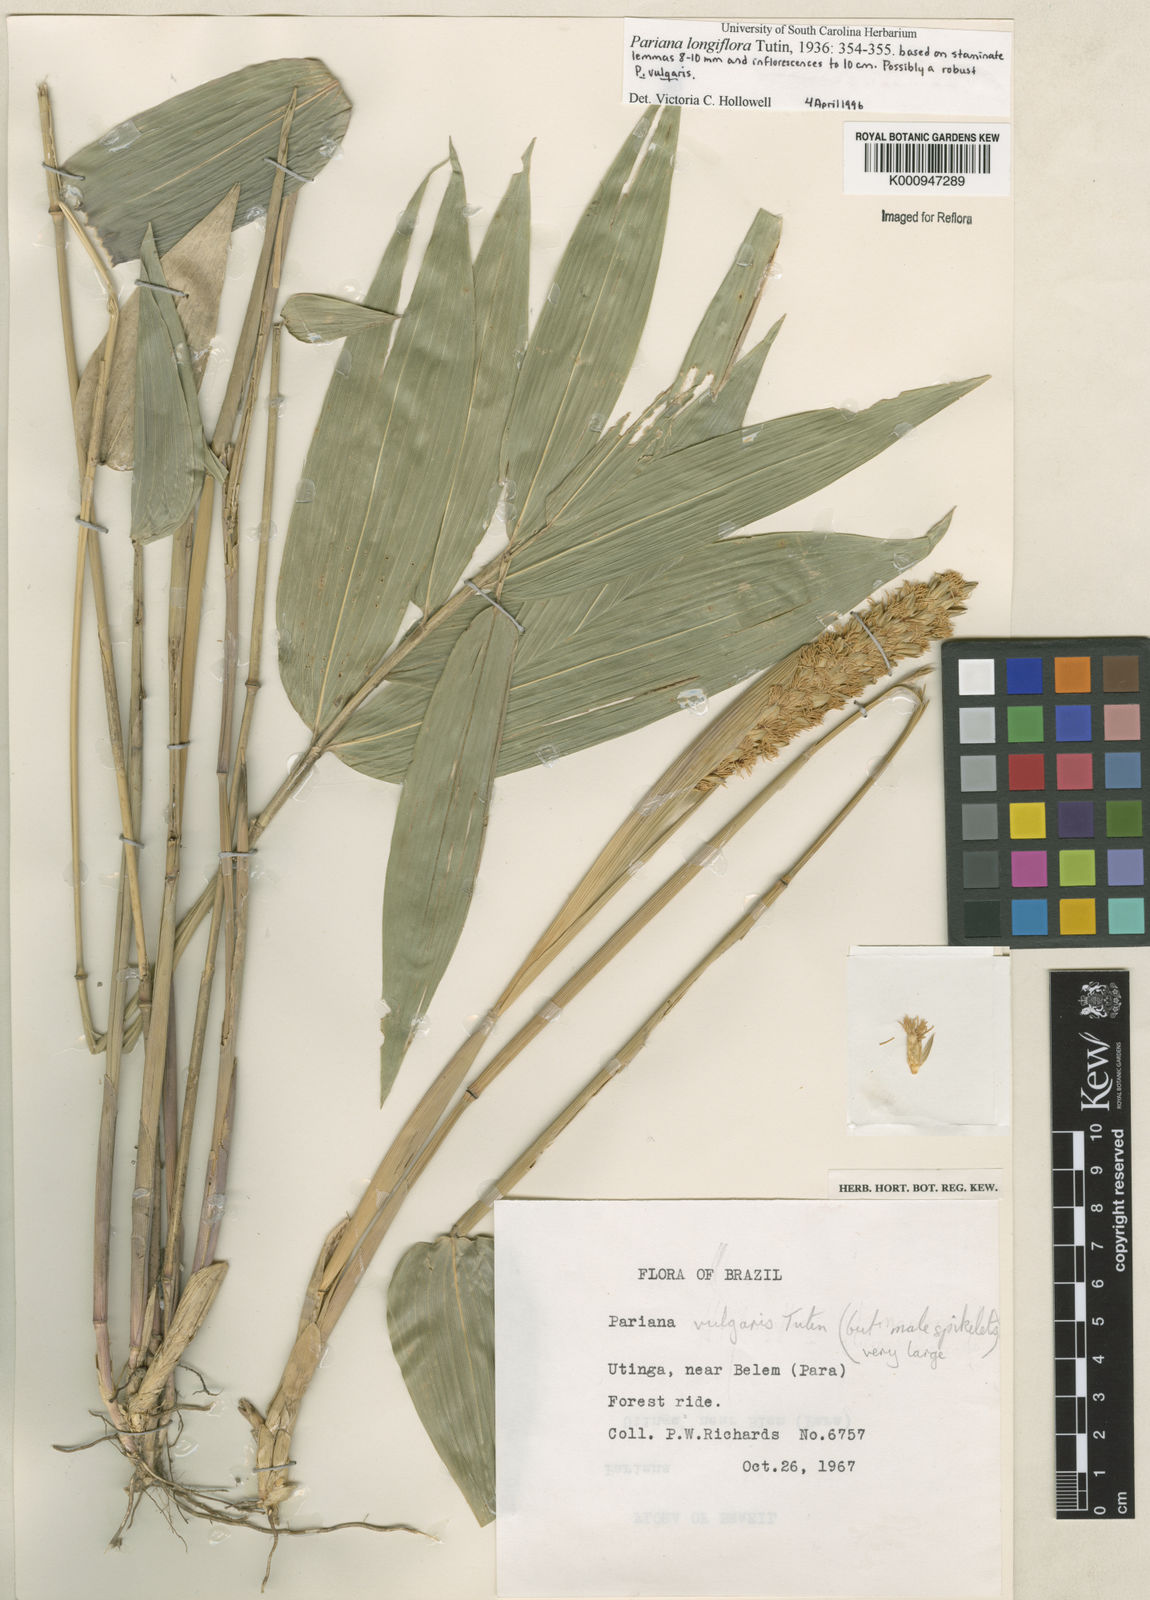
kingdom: Plantae
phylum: Tracheophyta
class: Liliopsida
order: Poales
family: Poaceae
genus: Pariana
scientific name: Pariana
